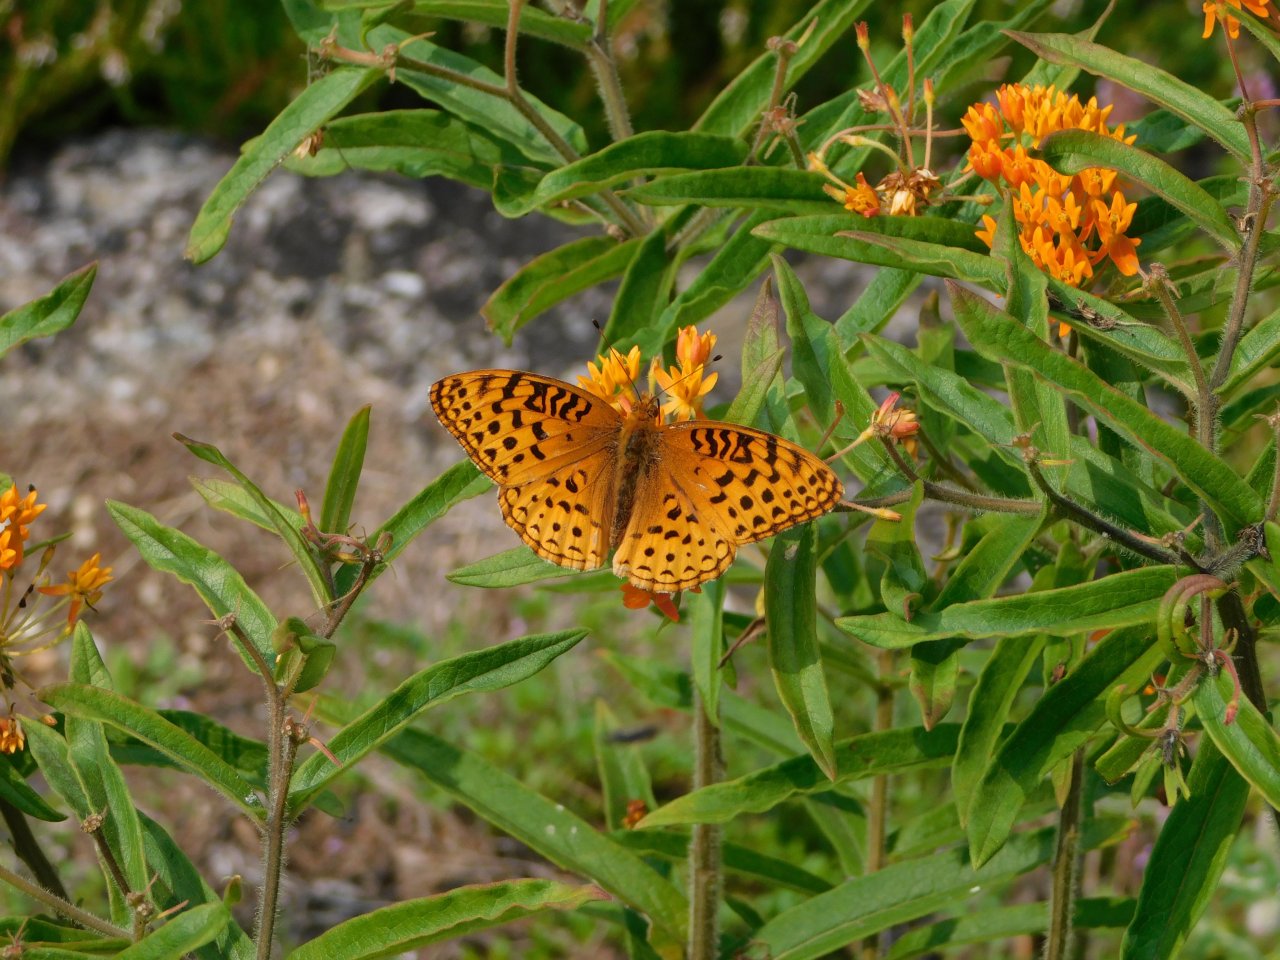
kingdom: Animalia
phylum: Arthropoda
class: Insecta
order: Lepidoptera
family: Nymphalidae
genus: Speyeria
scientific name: Speyeria aphrodite
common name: Aphrodite Fritillary
